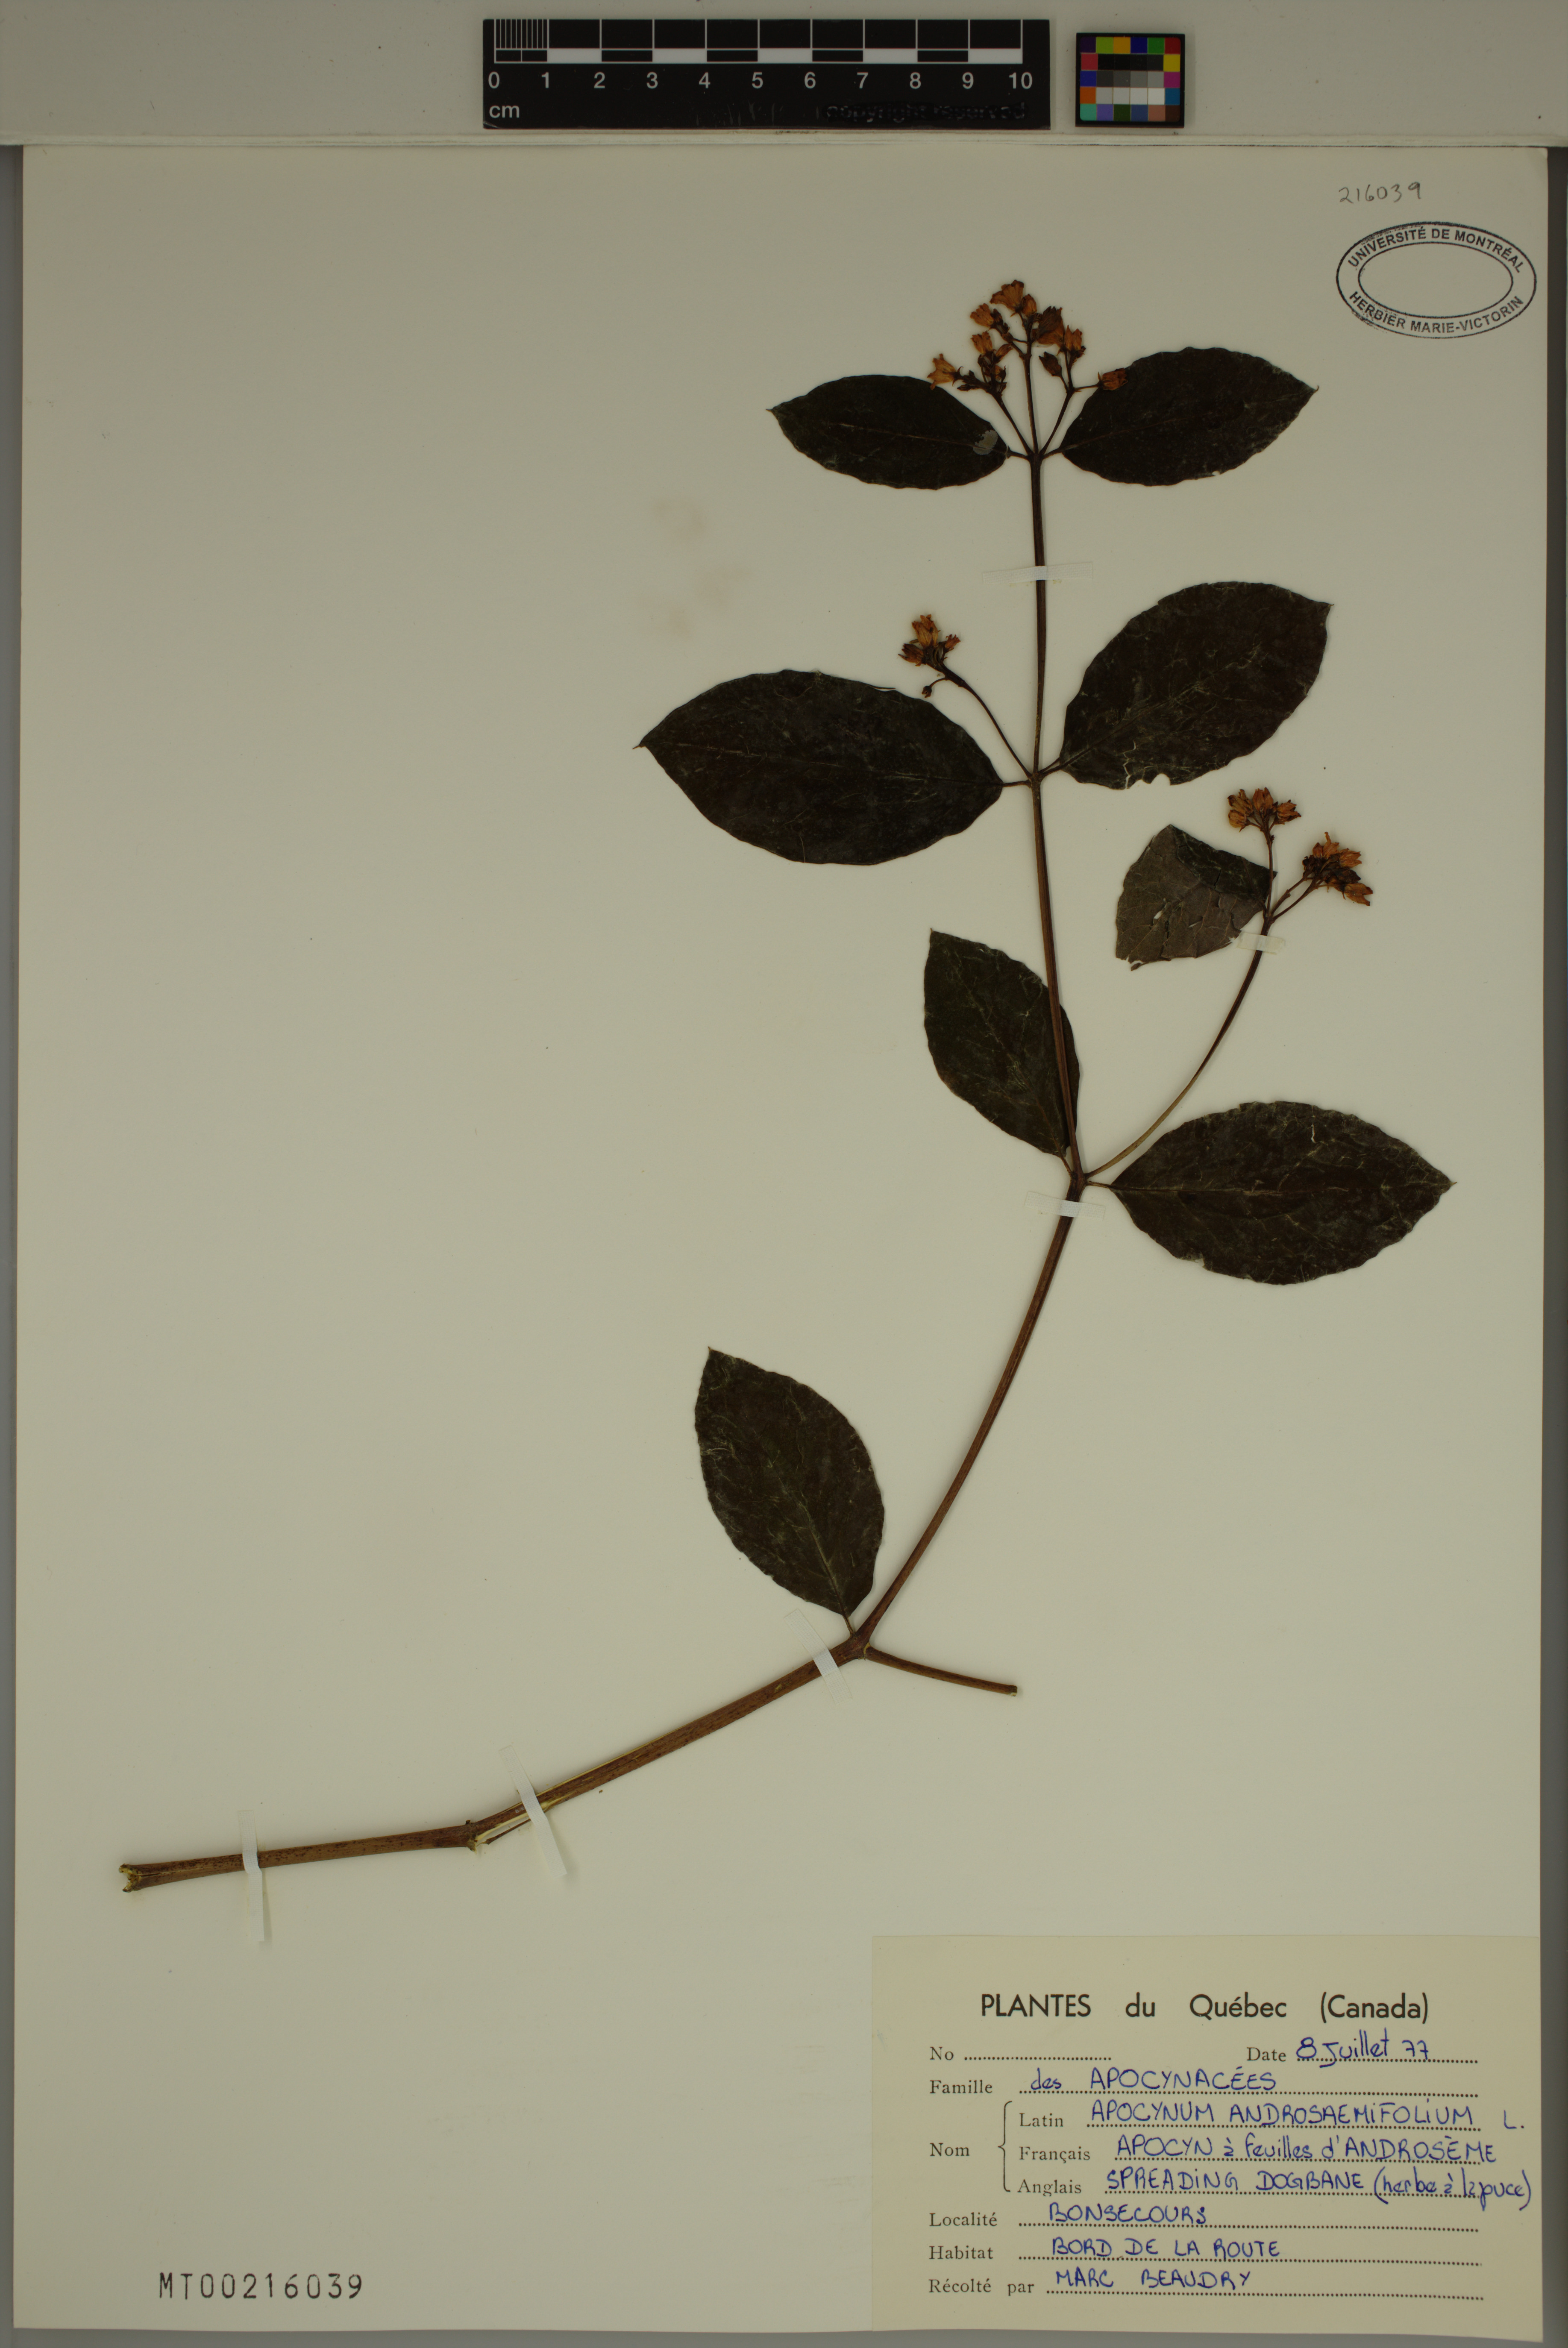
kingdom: Plantae
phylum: Tracheophyta
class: Magnoliopsida
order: Gentianales
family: Apocynaceae
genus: Apocynum
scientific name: Apocynum androsaemifolium
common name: Spreading dogbane
